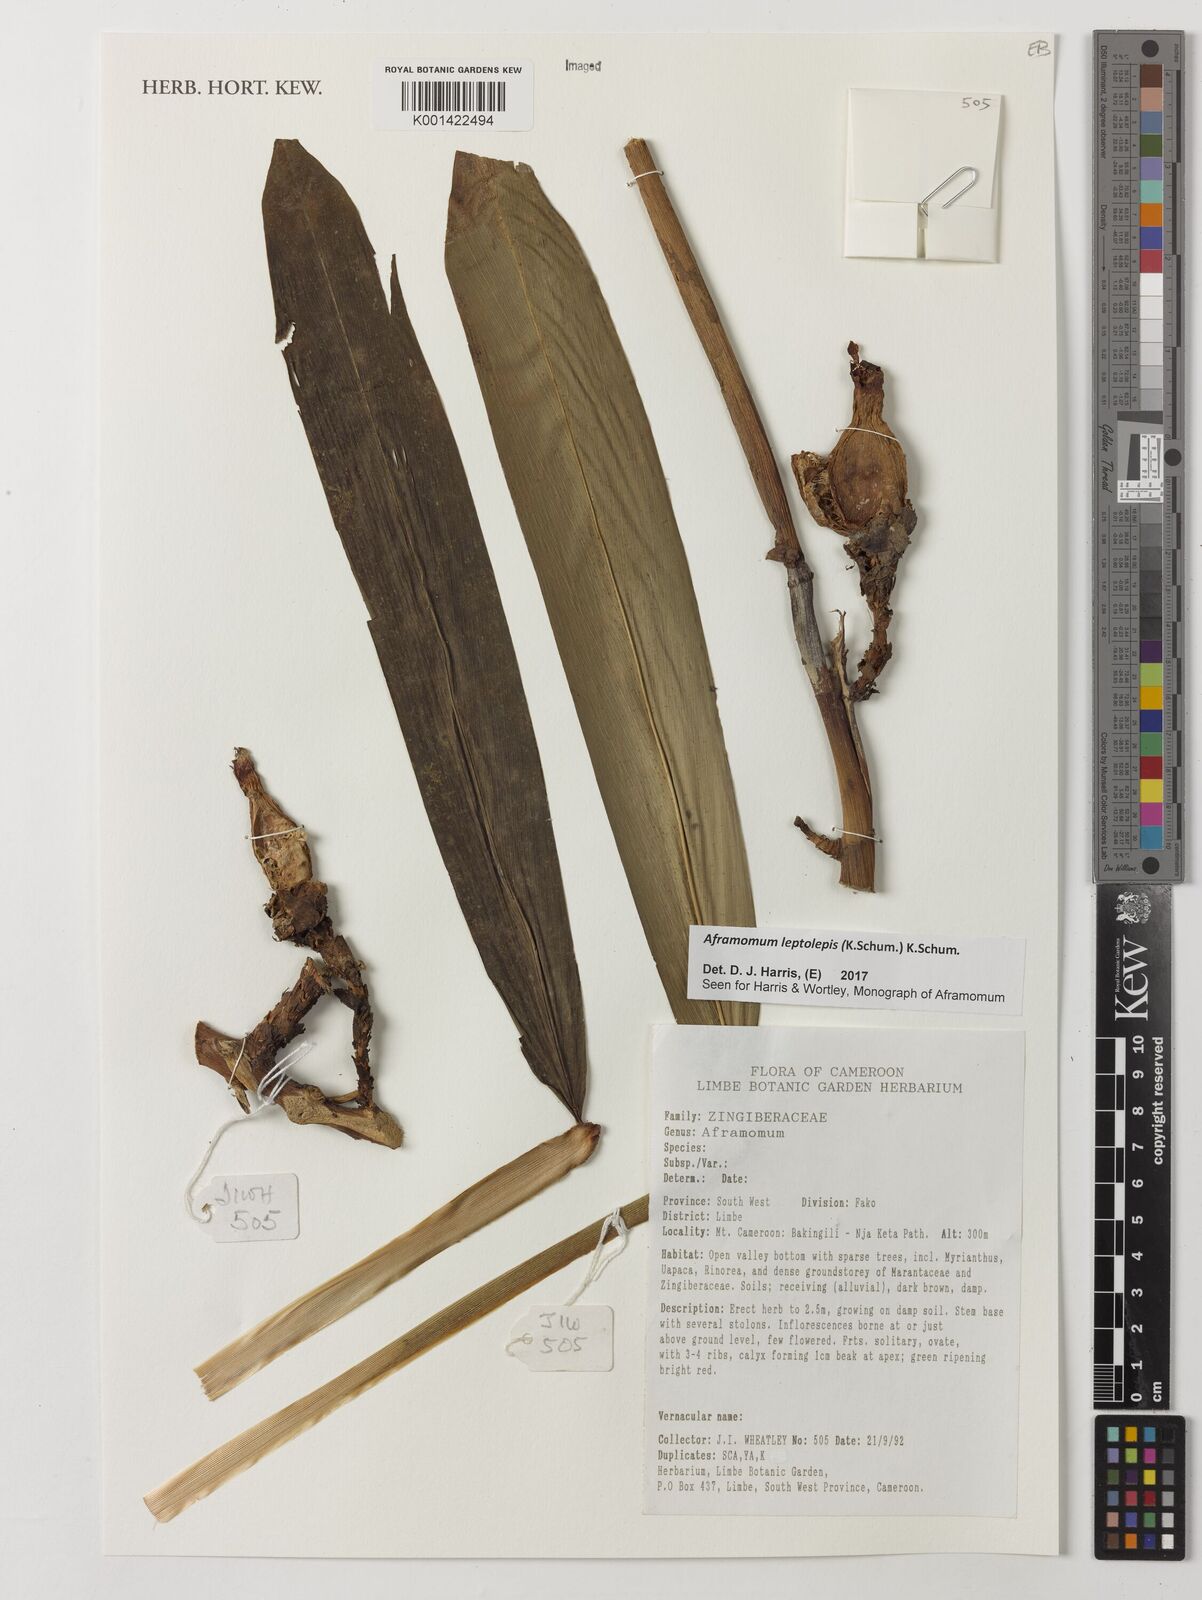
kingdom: Plantae
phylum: Tracheophyta
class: Liliopsida
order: Zingiberales
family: Zingiberaceae
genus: Aframomum
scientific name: Aframomum leptolepis
